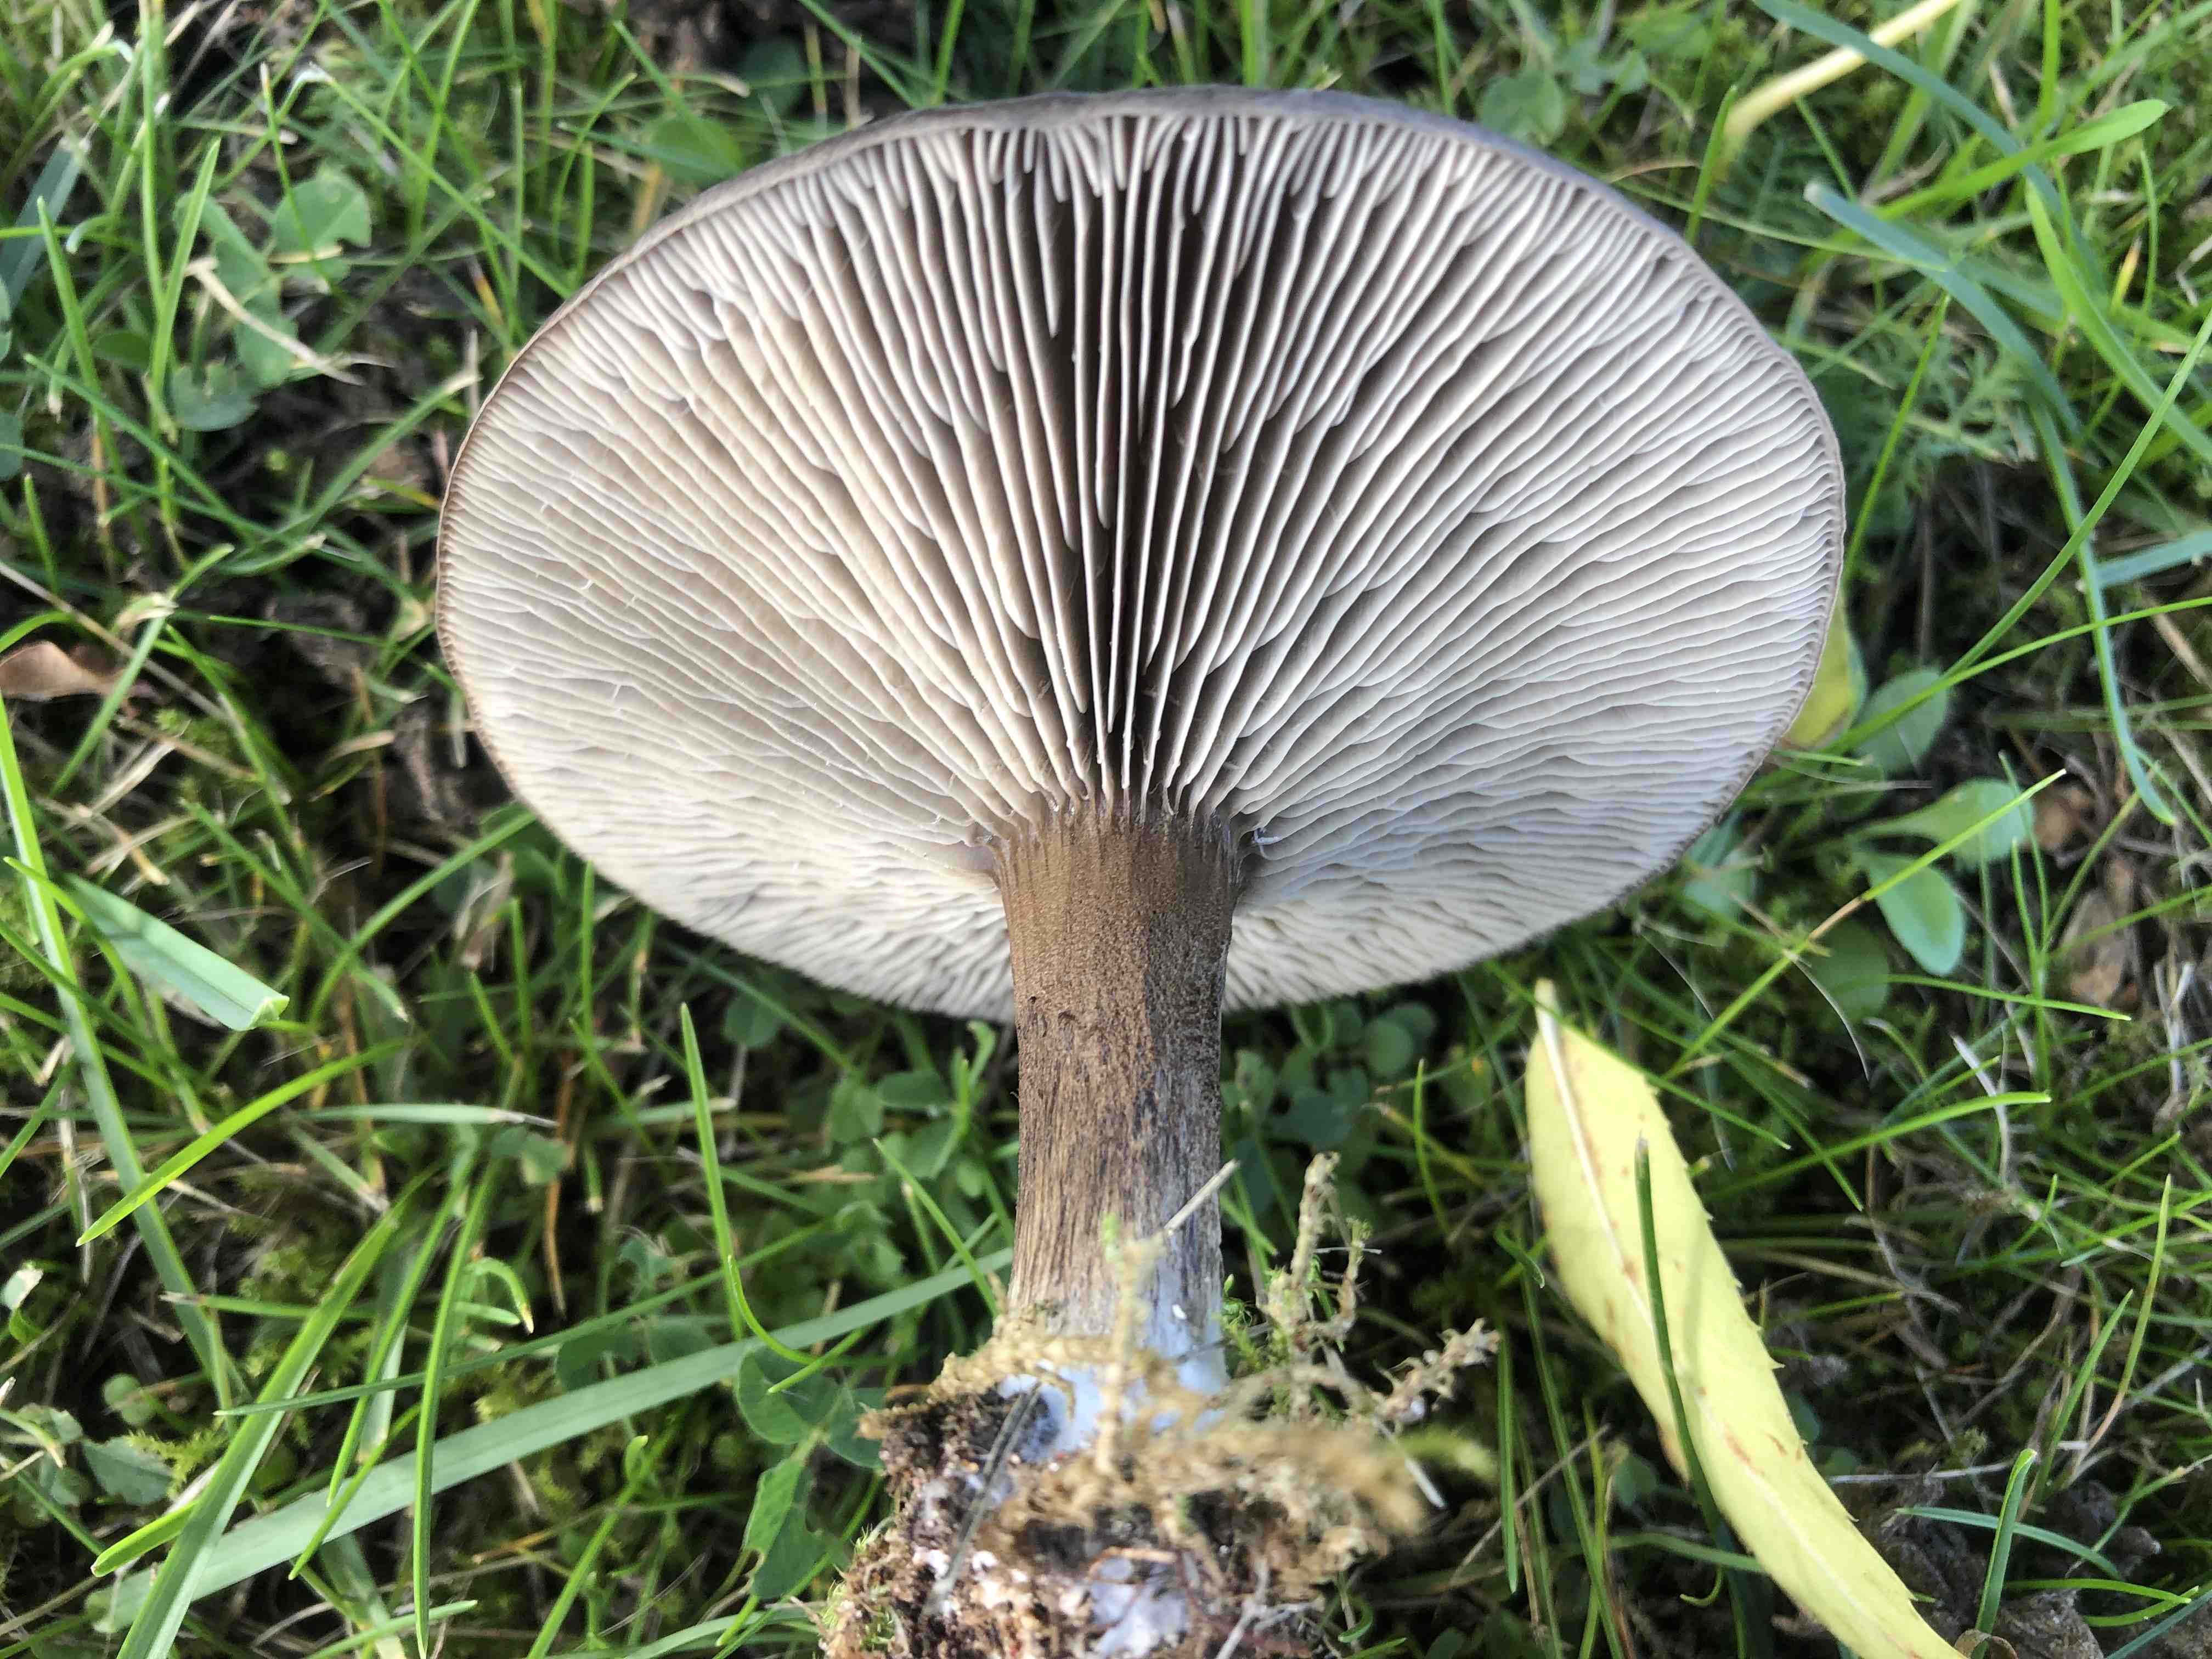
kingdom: Fungi
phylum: Basidiomycota
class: Agaricomycetes
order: Agaricales
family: Tricholomataceae
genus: Melanoleuca
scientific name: Melanoleuca
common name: munkehat
